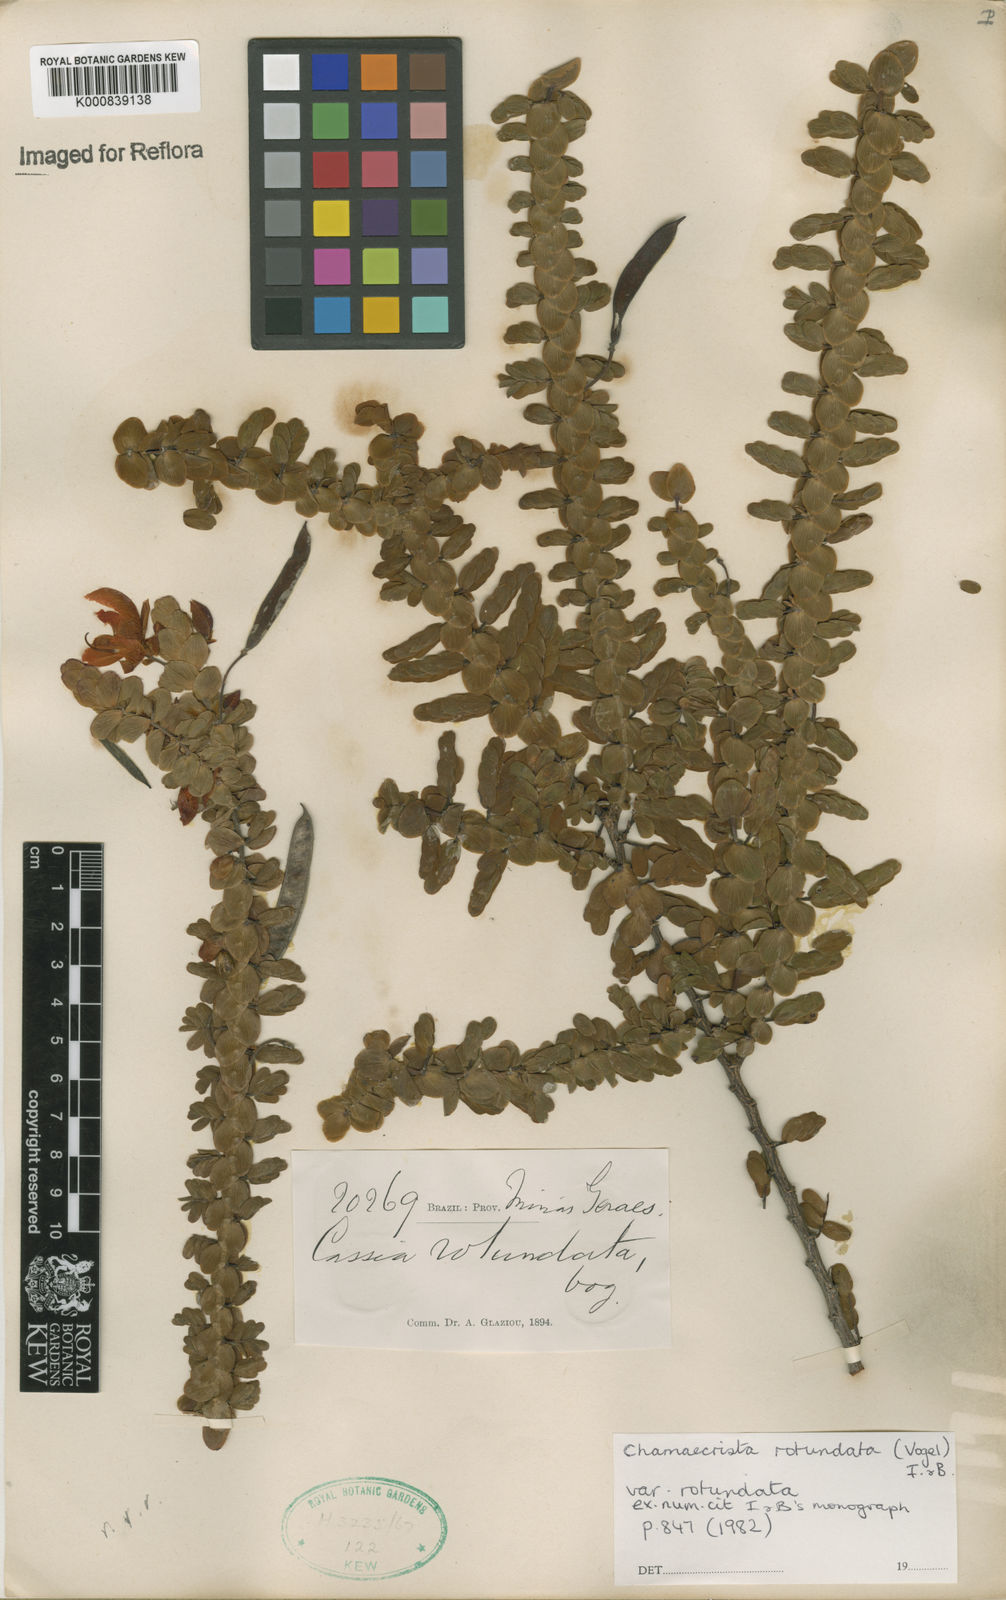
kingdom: Plantae
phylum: Tracheophyta
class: Magnoliopsida
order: Fabales
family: Fabaceae
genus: Chamaecrista
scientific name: Chamaecrista
